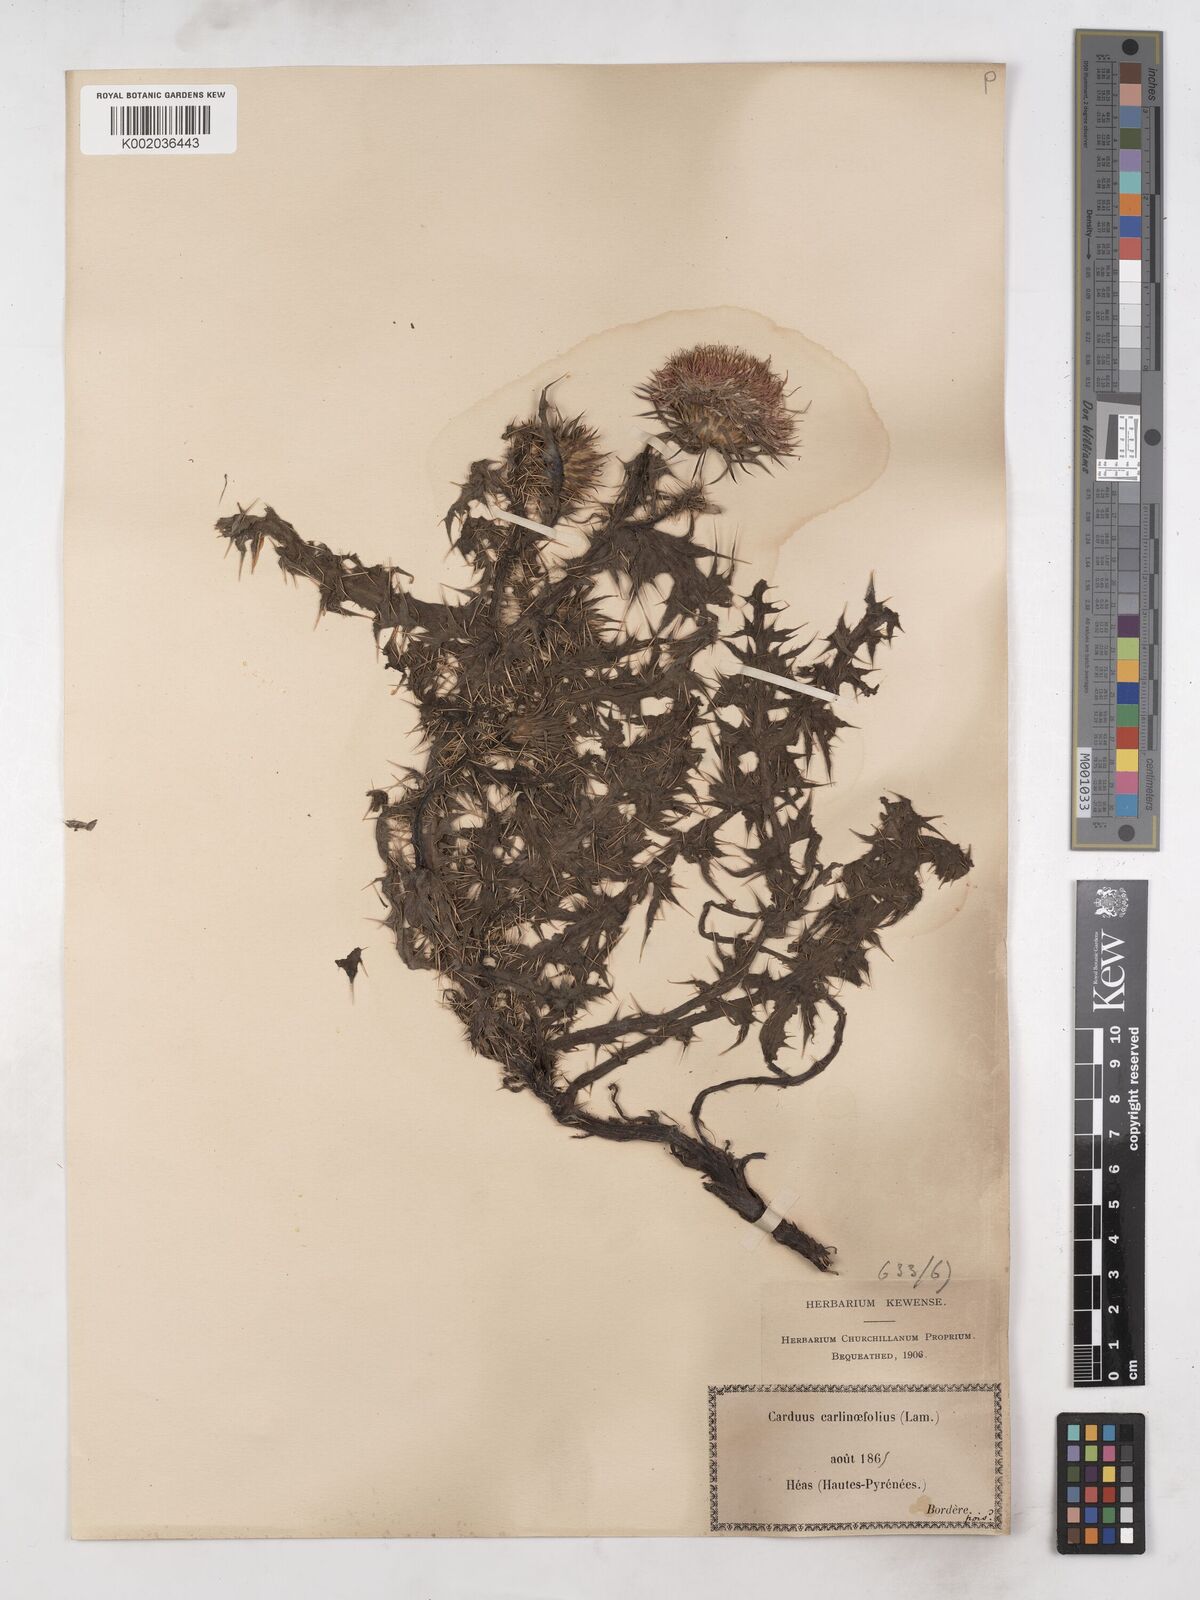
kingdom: Plantae
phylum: Tracheophyta
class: Magnoliopsida
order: Asterales
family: Asteraceae
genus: Carduus
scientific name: Carduus carlinifolius
